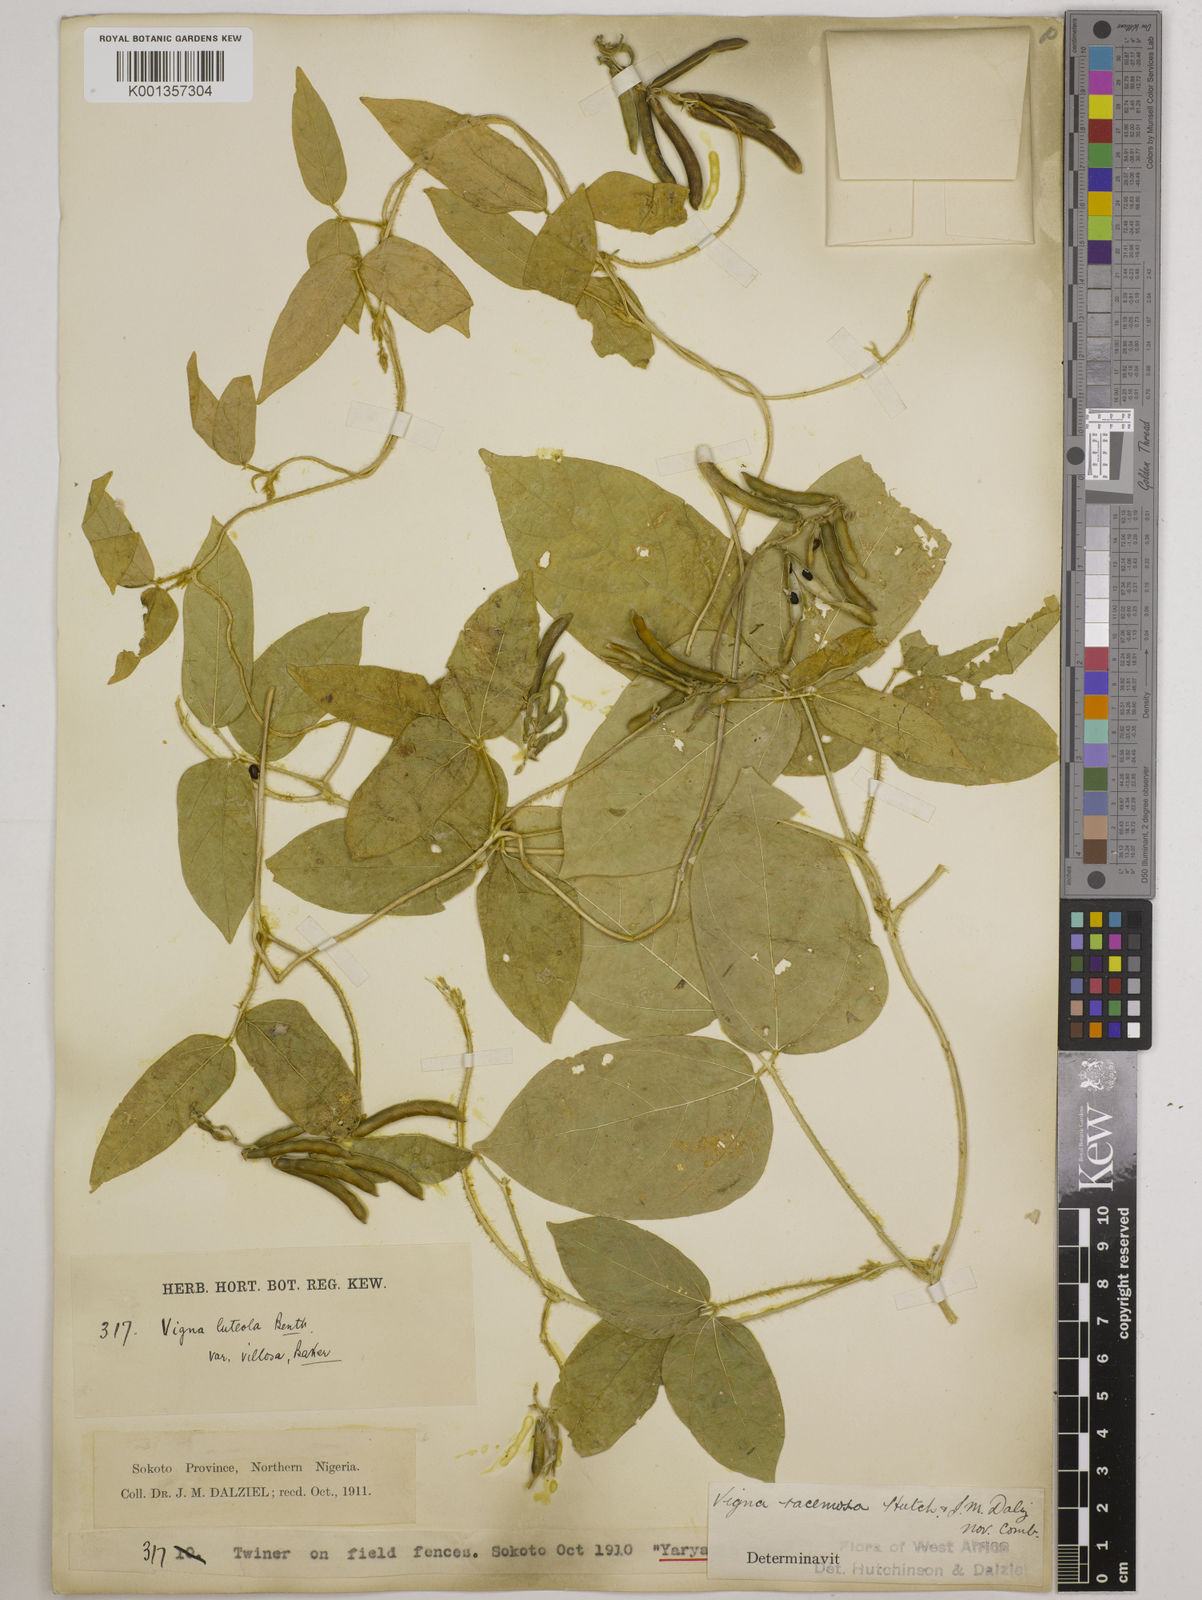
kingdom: Plantae
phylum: Tracheophyta
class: Magnoliopsida
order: Fabales
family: Fabaceae
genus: Vigna
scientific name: Vigna racemosa
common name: Beans not eaten
